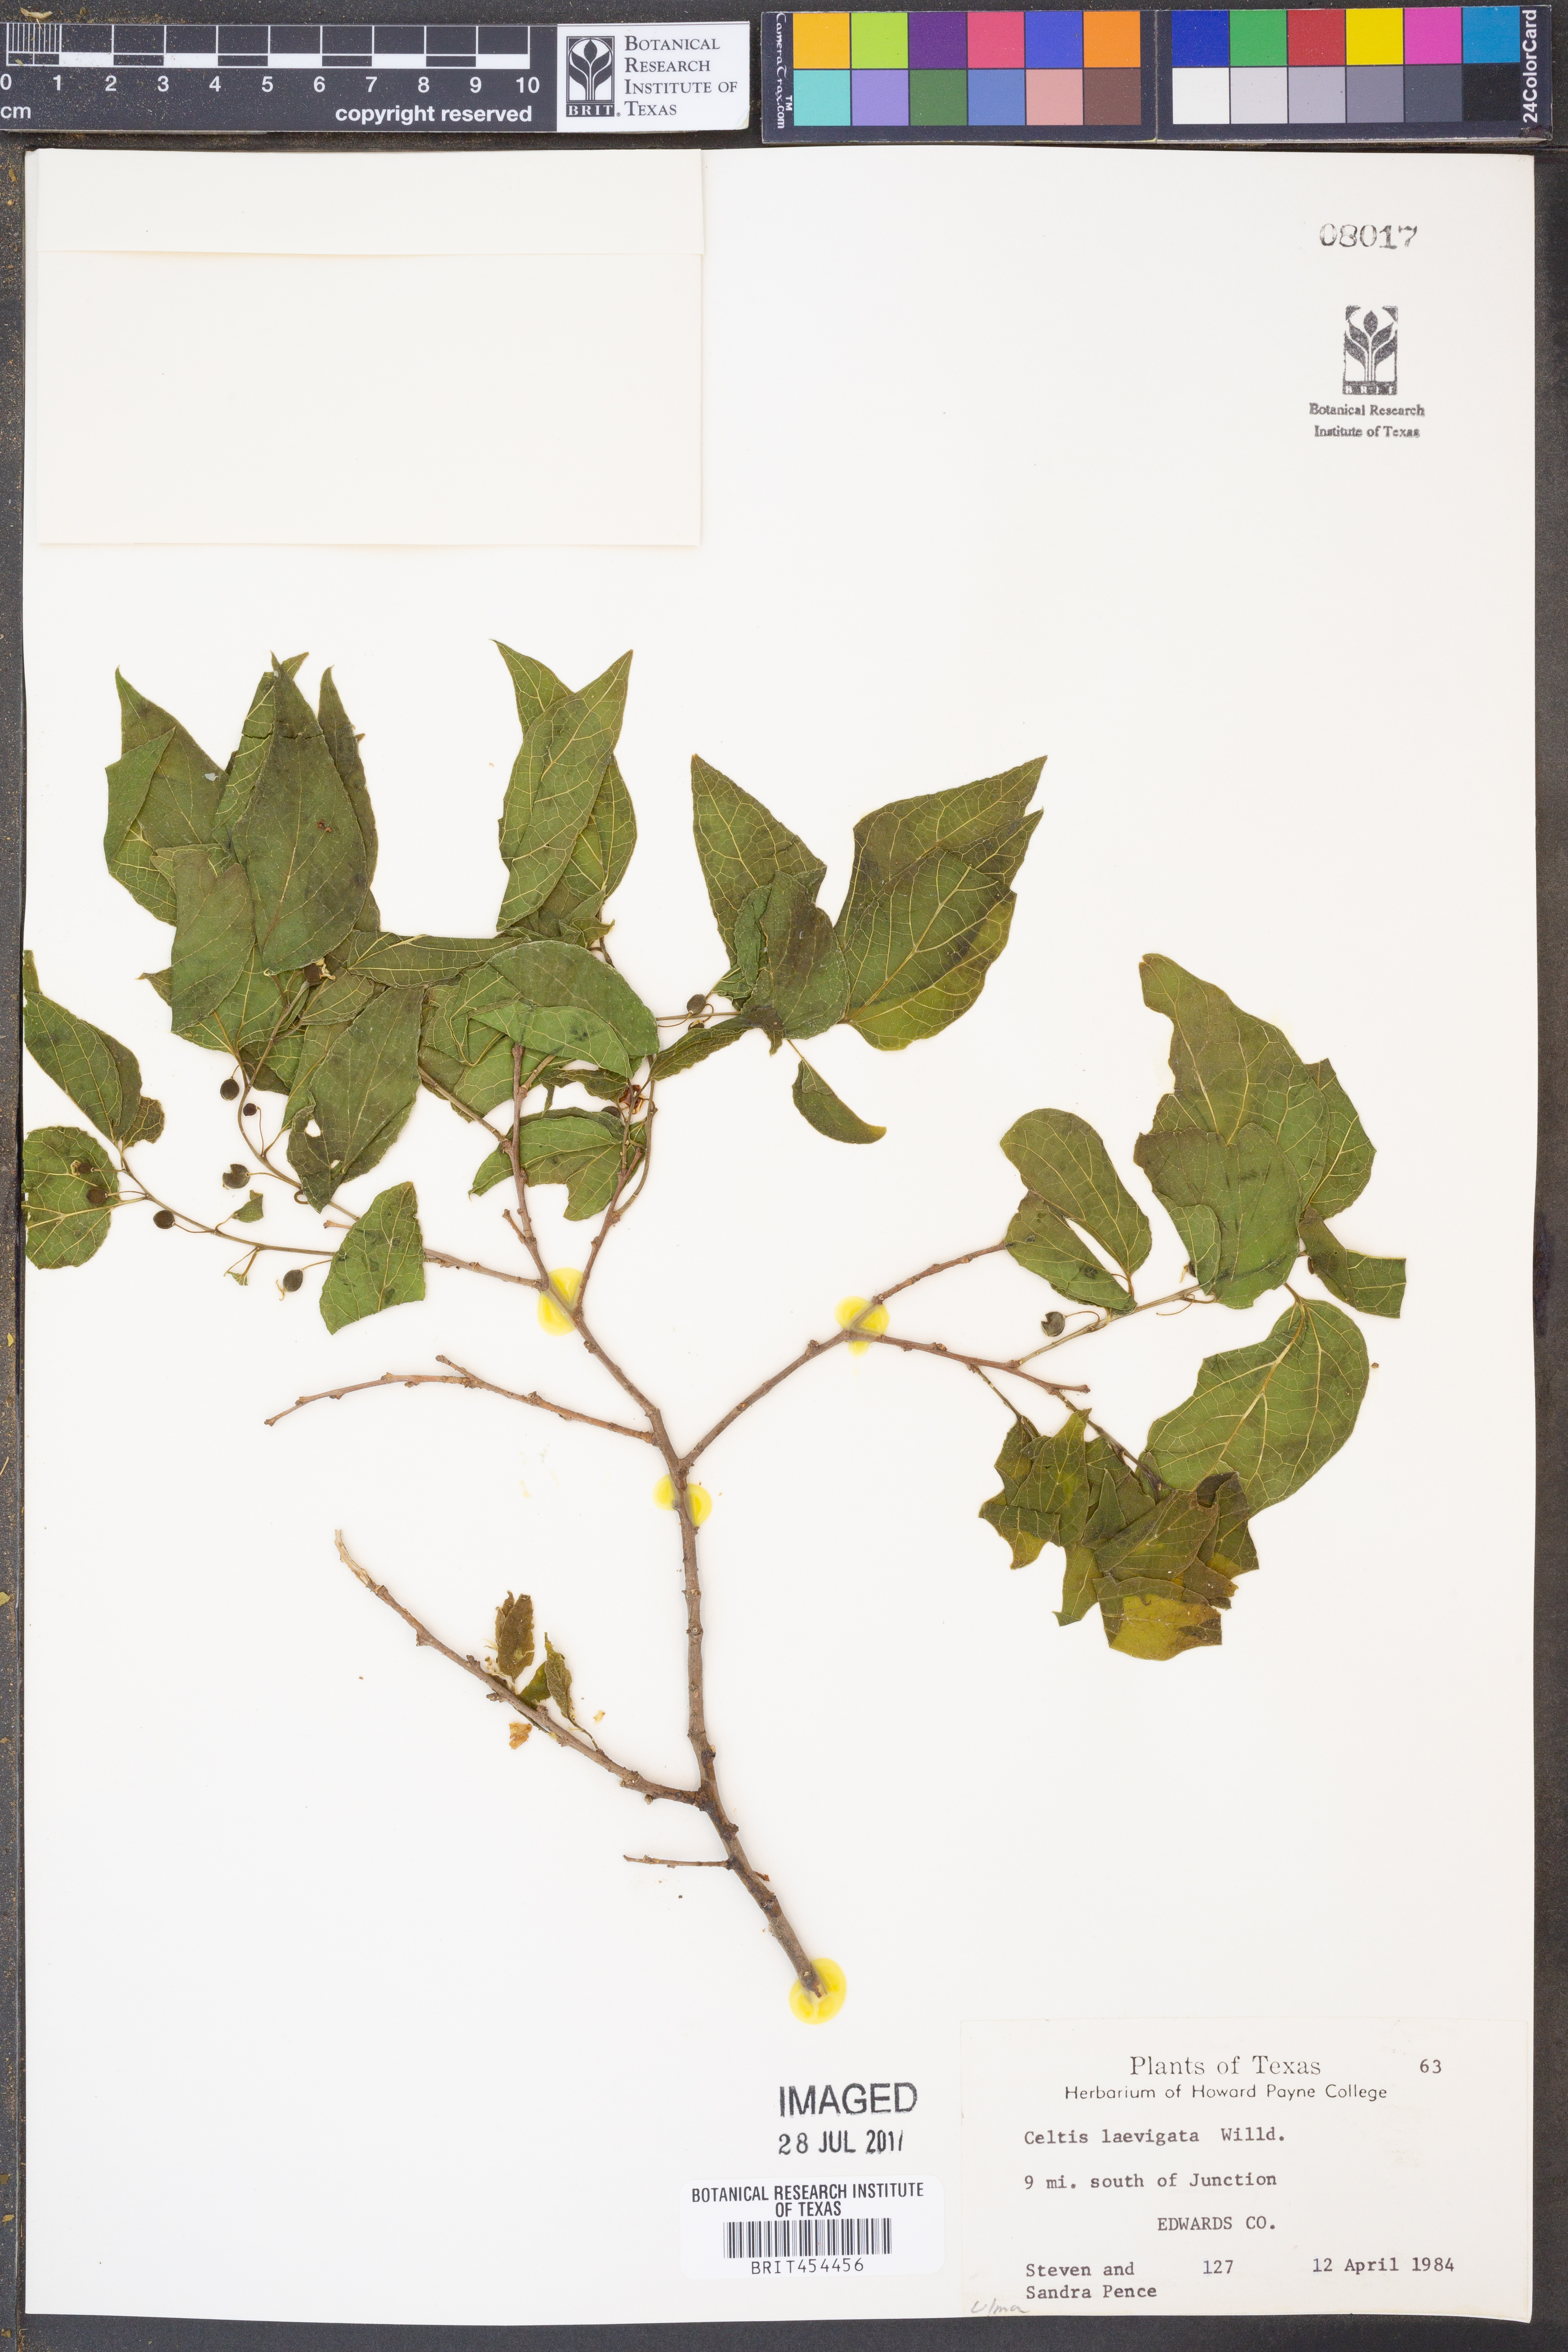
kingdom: Plantae
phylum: Tracheophyta
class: Magnoliopsida
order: Rosales
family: Cannabaceae
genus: Celtis
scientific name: Celtis laevigata
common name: Sugarberry
